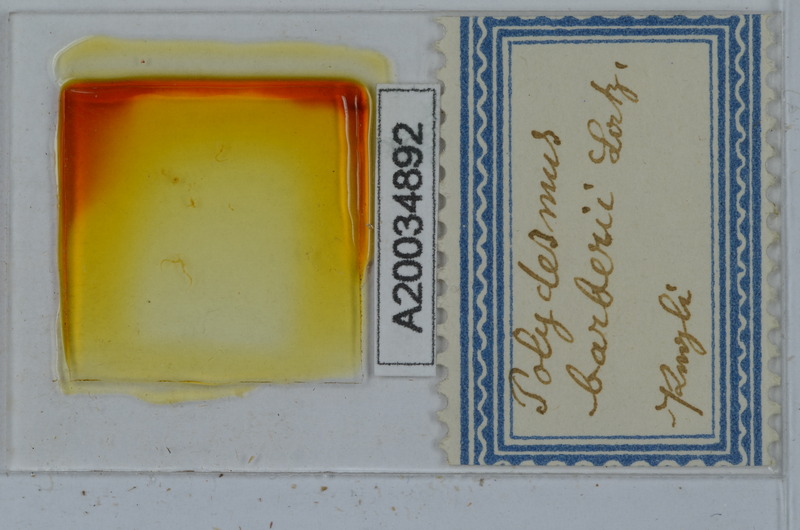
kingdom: Animalia
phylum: Arthropoda
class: Diplopoda
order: Polydesmida
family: Polydesmidae
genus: Polydesmus
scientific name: Polydesmus barberii
